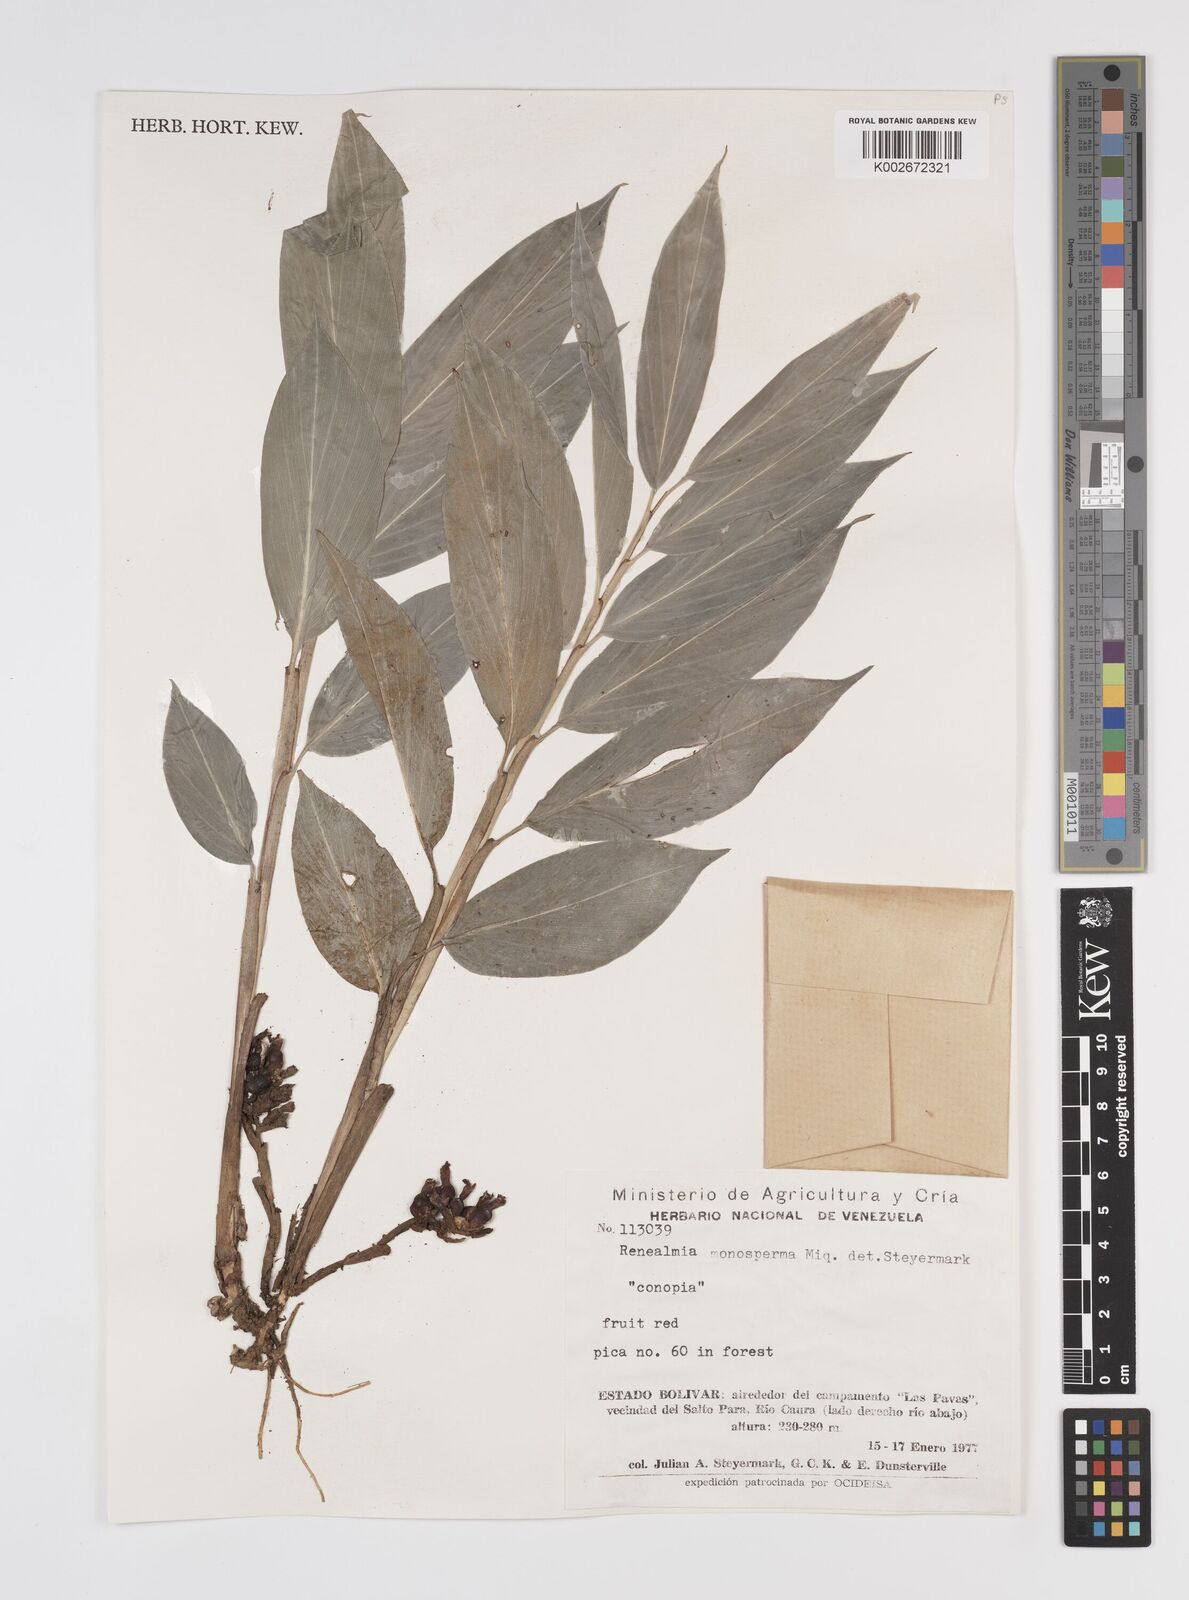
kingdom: Plantae
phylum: Tracheophyta
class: Liliopsida
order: Zingiberales
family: Zingiberaceae
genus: Renealmia
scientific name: Renealmia monosperma
